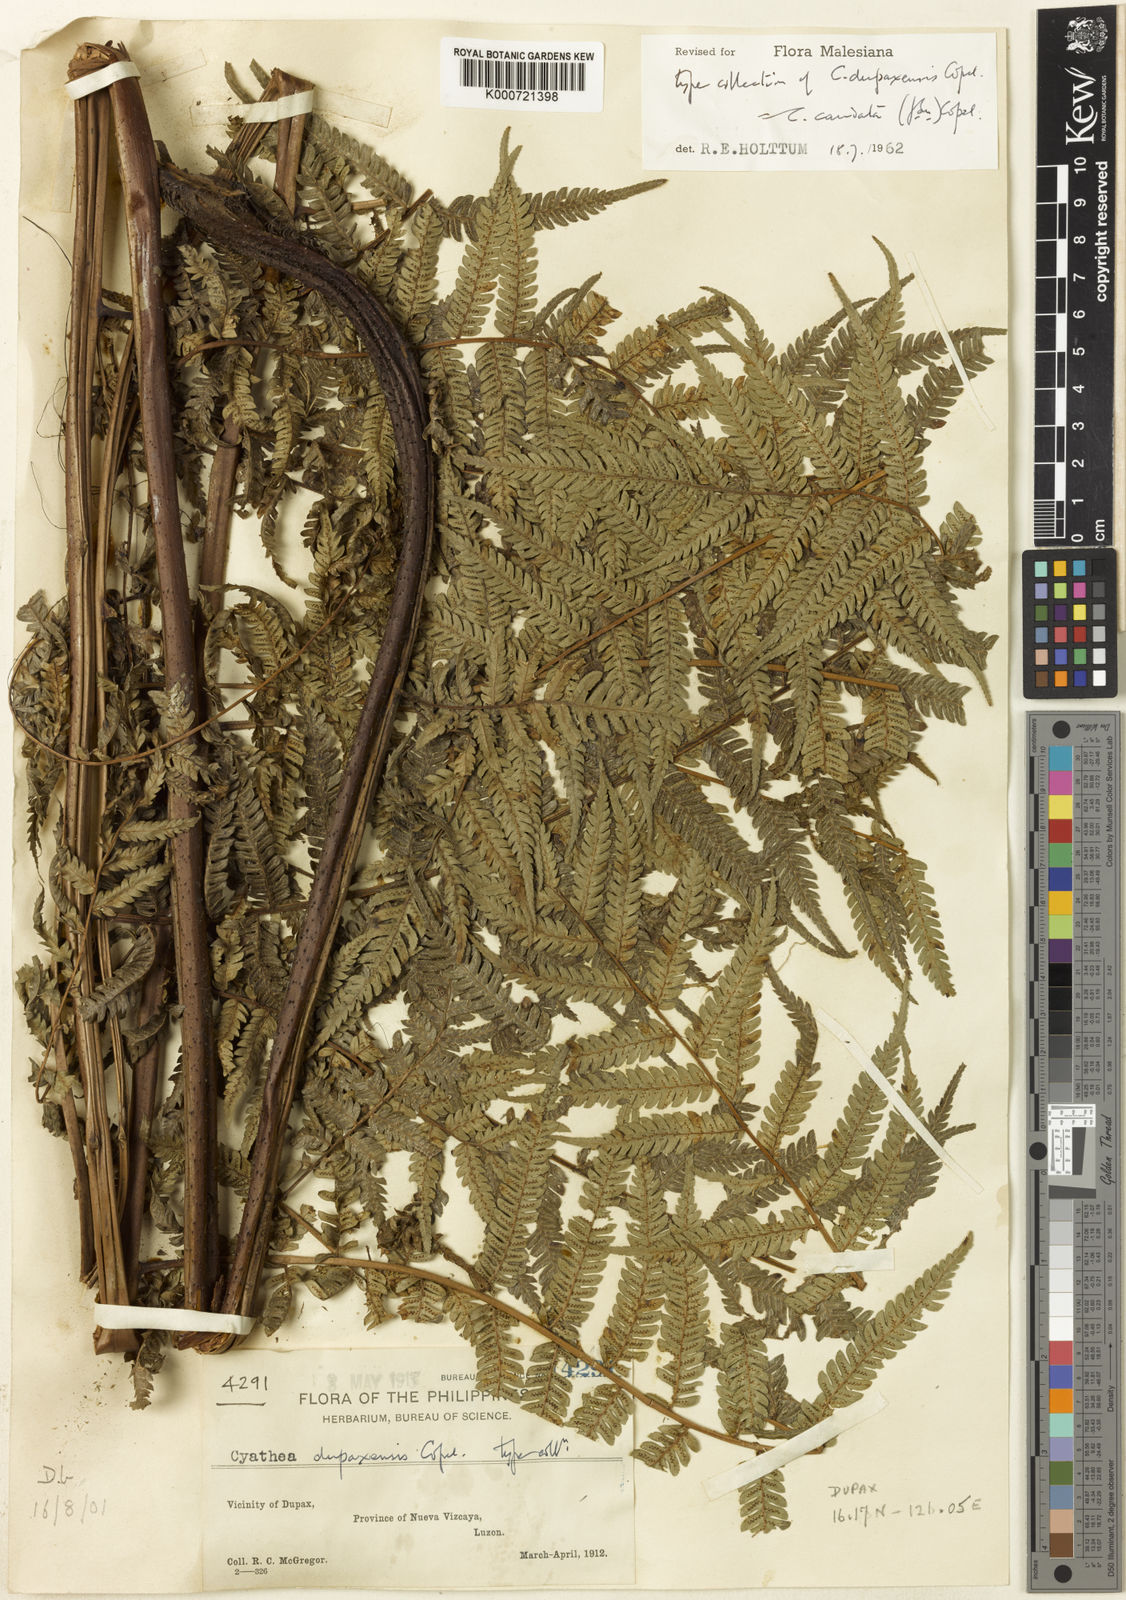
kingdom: Plantae
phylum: Tracheophyta
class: Polypodiopsida
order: Cyatheales
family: Cyatheaceae
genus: Alsophila
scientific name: Alsophila speciosa
